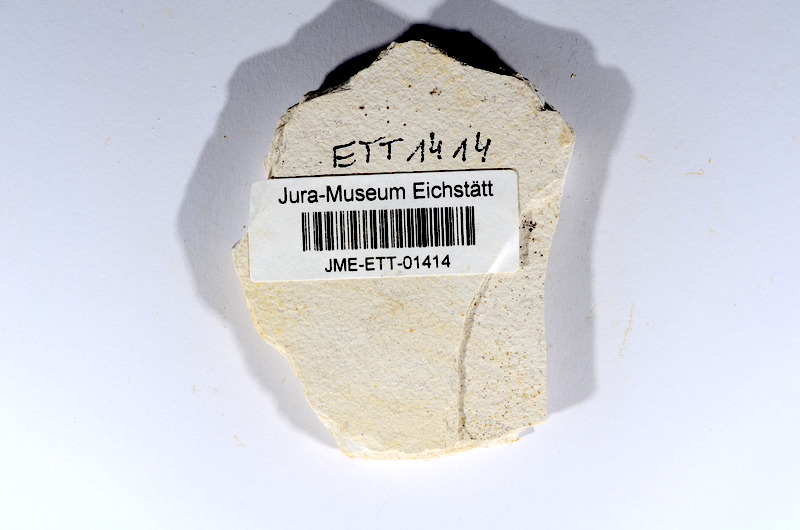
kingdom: Animalia
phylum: Chordata
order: Salmoniformes
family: Orthogonikleithridae
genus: Orthogonikleithrus
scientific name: Orthogonikleithrus hoelli
